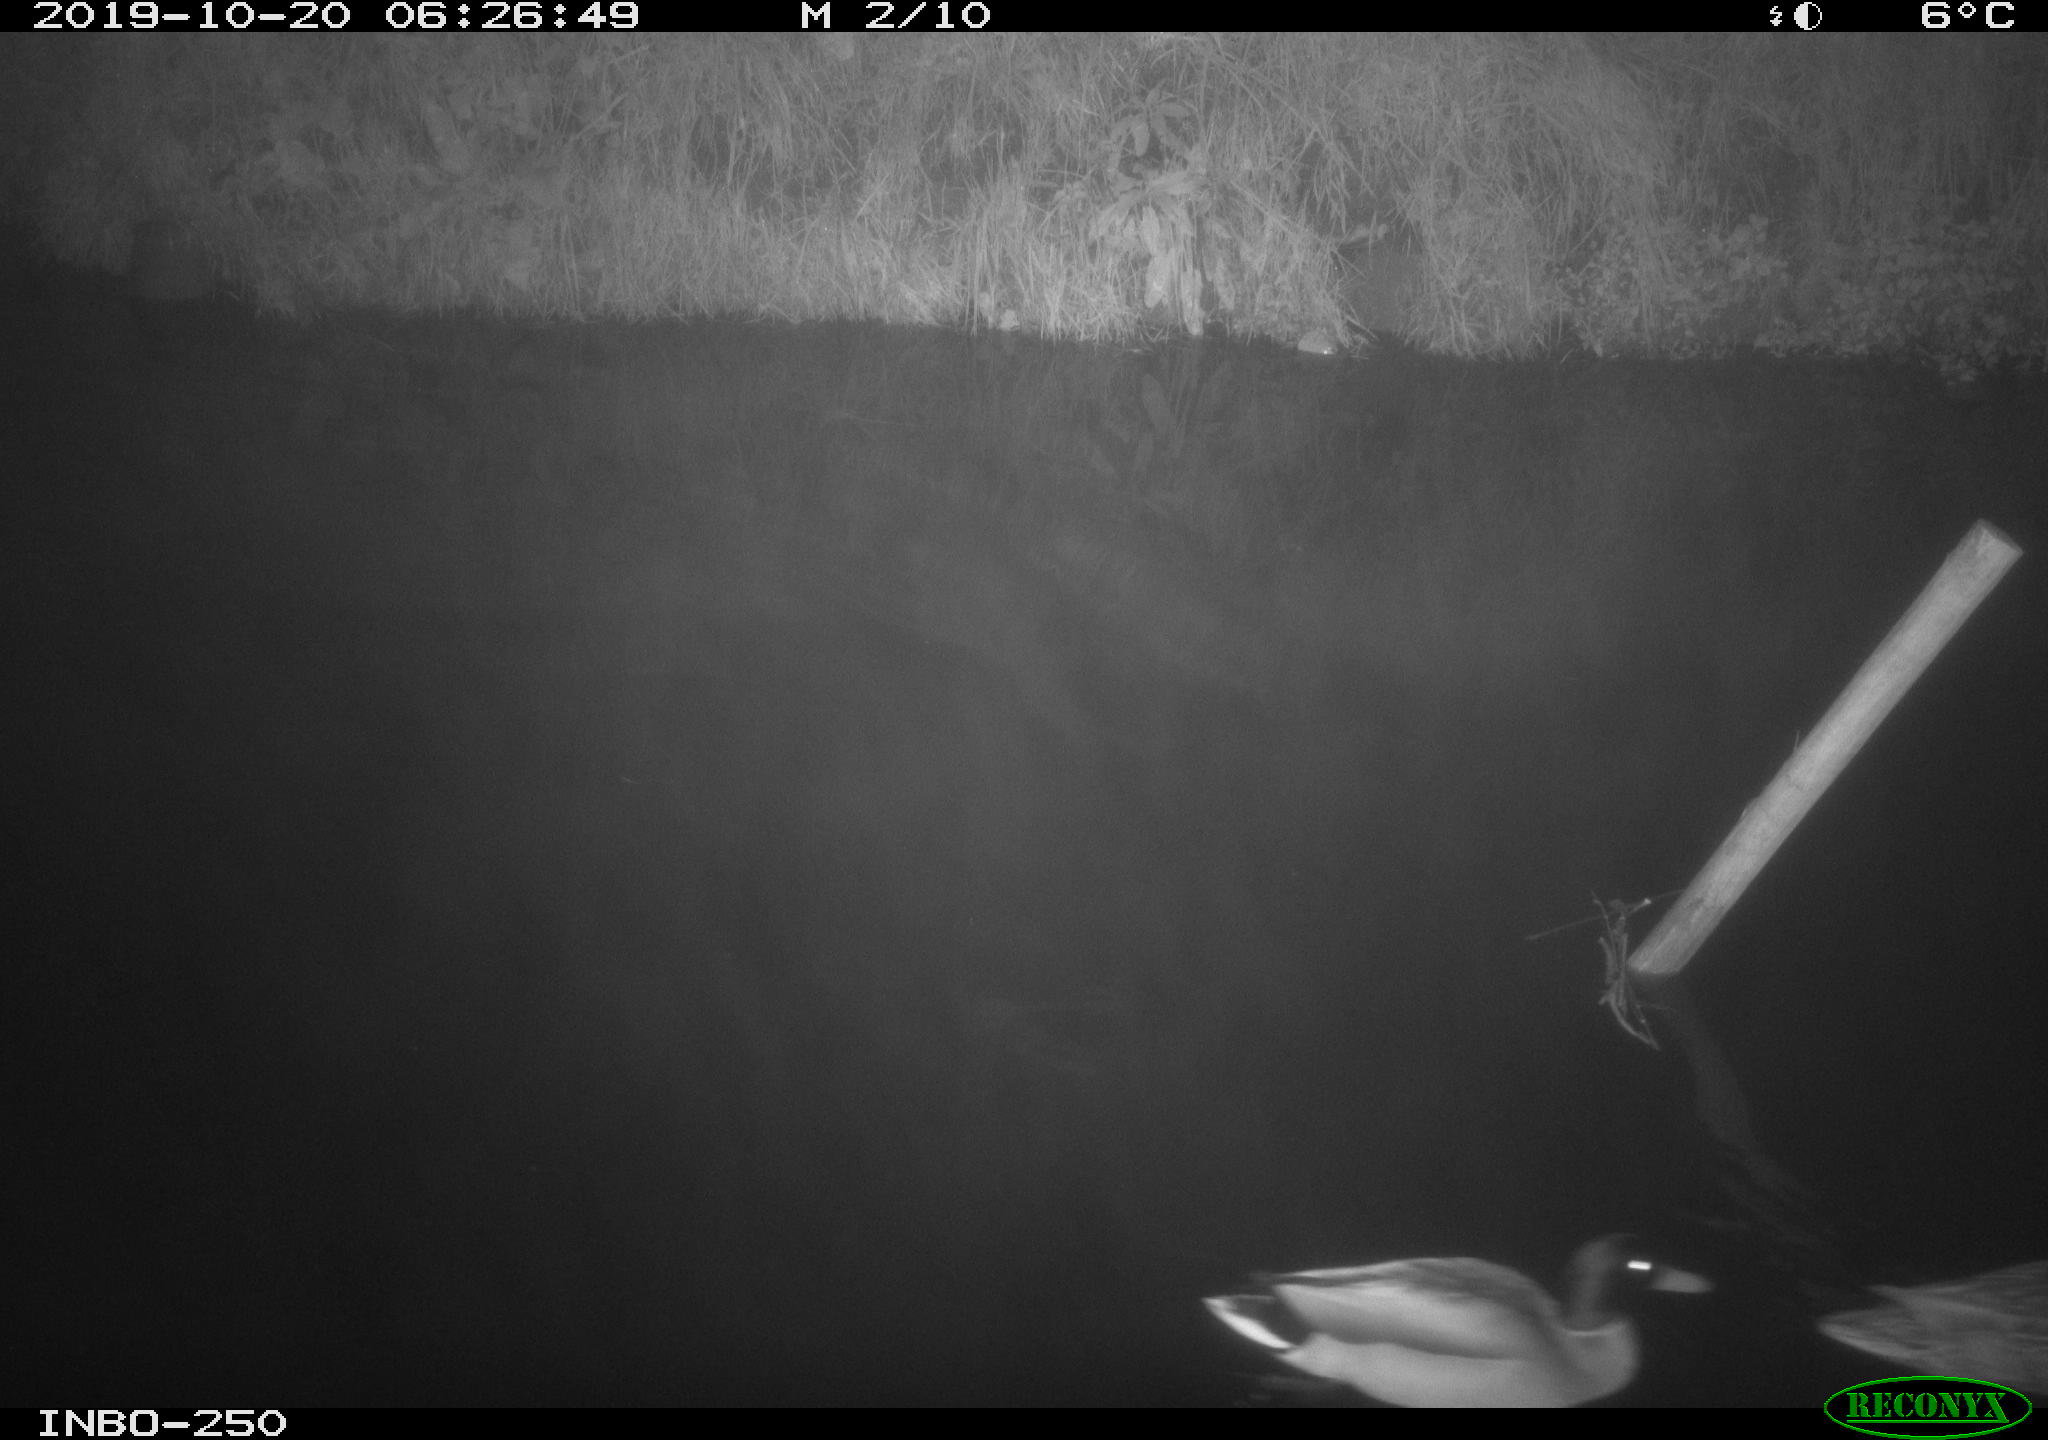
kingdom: Animalia
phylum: Chordata
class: Aves
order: Anseriformes
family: Anatidae
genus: Anas
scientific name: Anas platyrhynchos
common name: Mallard
